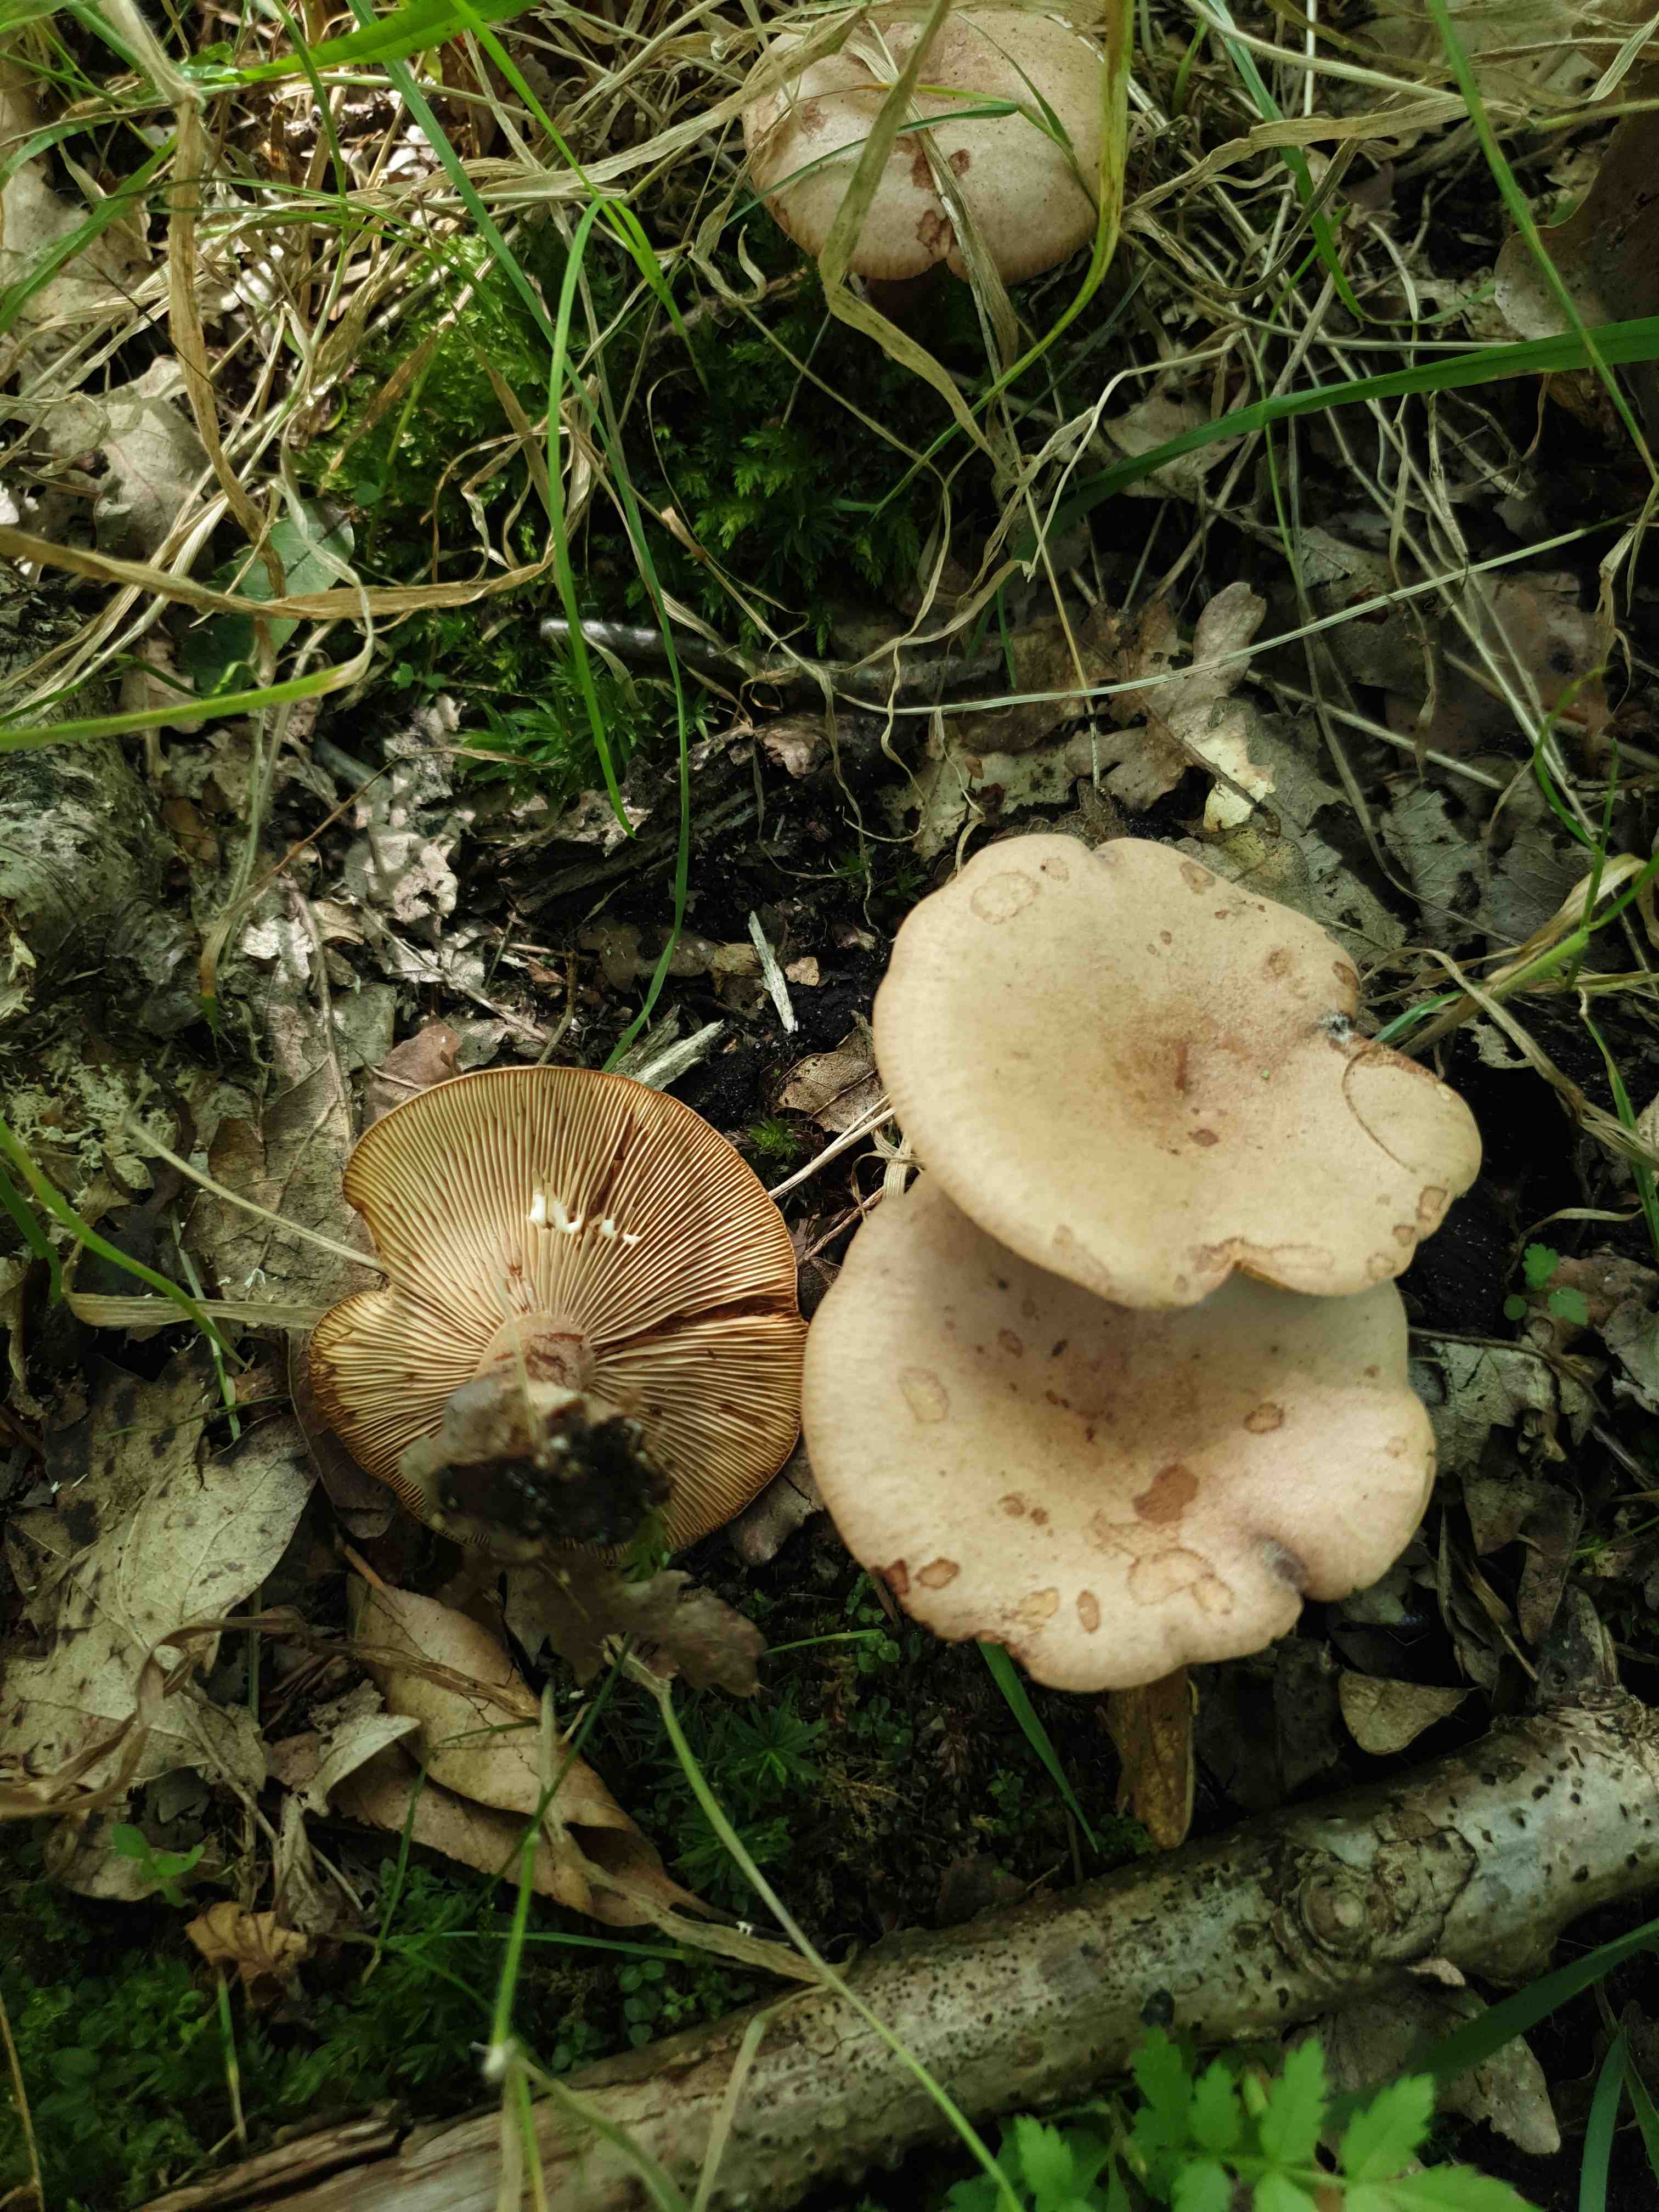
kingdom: Fungi
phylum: Basidiomycota
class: Agaricomycetes
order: Russulales
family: Russulaceae
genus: Lactarius
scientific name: Lactarius quietus
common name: ege-mælkehat
